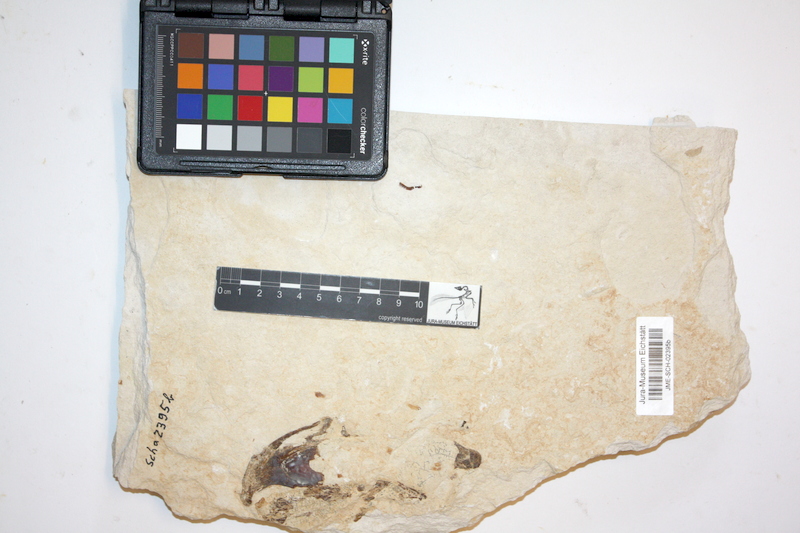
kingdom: Animalia
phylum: Chordata
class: Coelacanthi
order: Coelacanthiformes
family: Coelacanthidae
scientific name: Coelacanthidae
